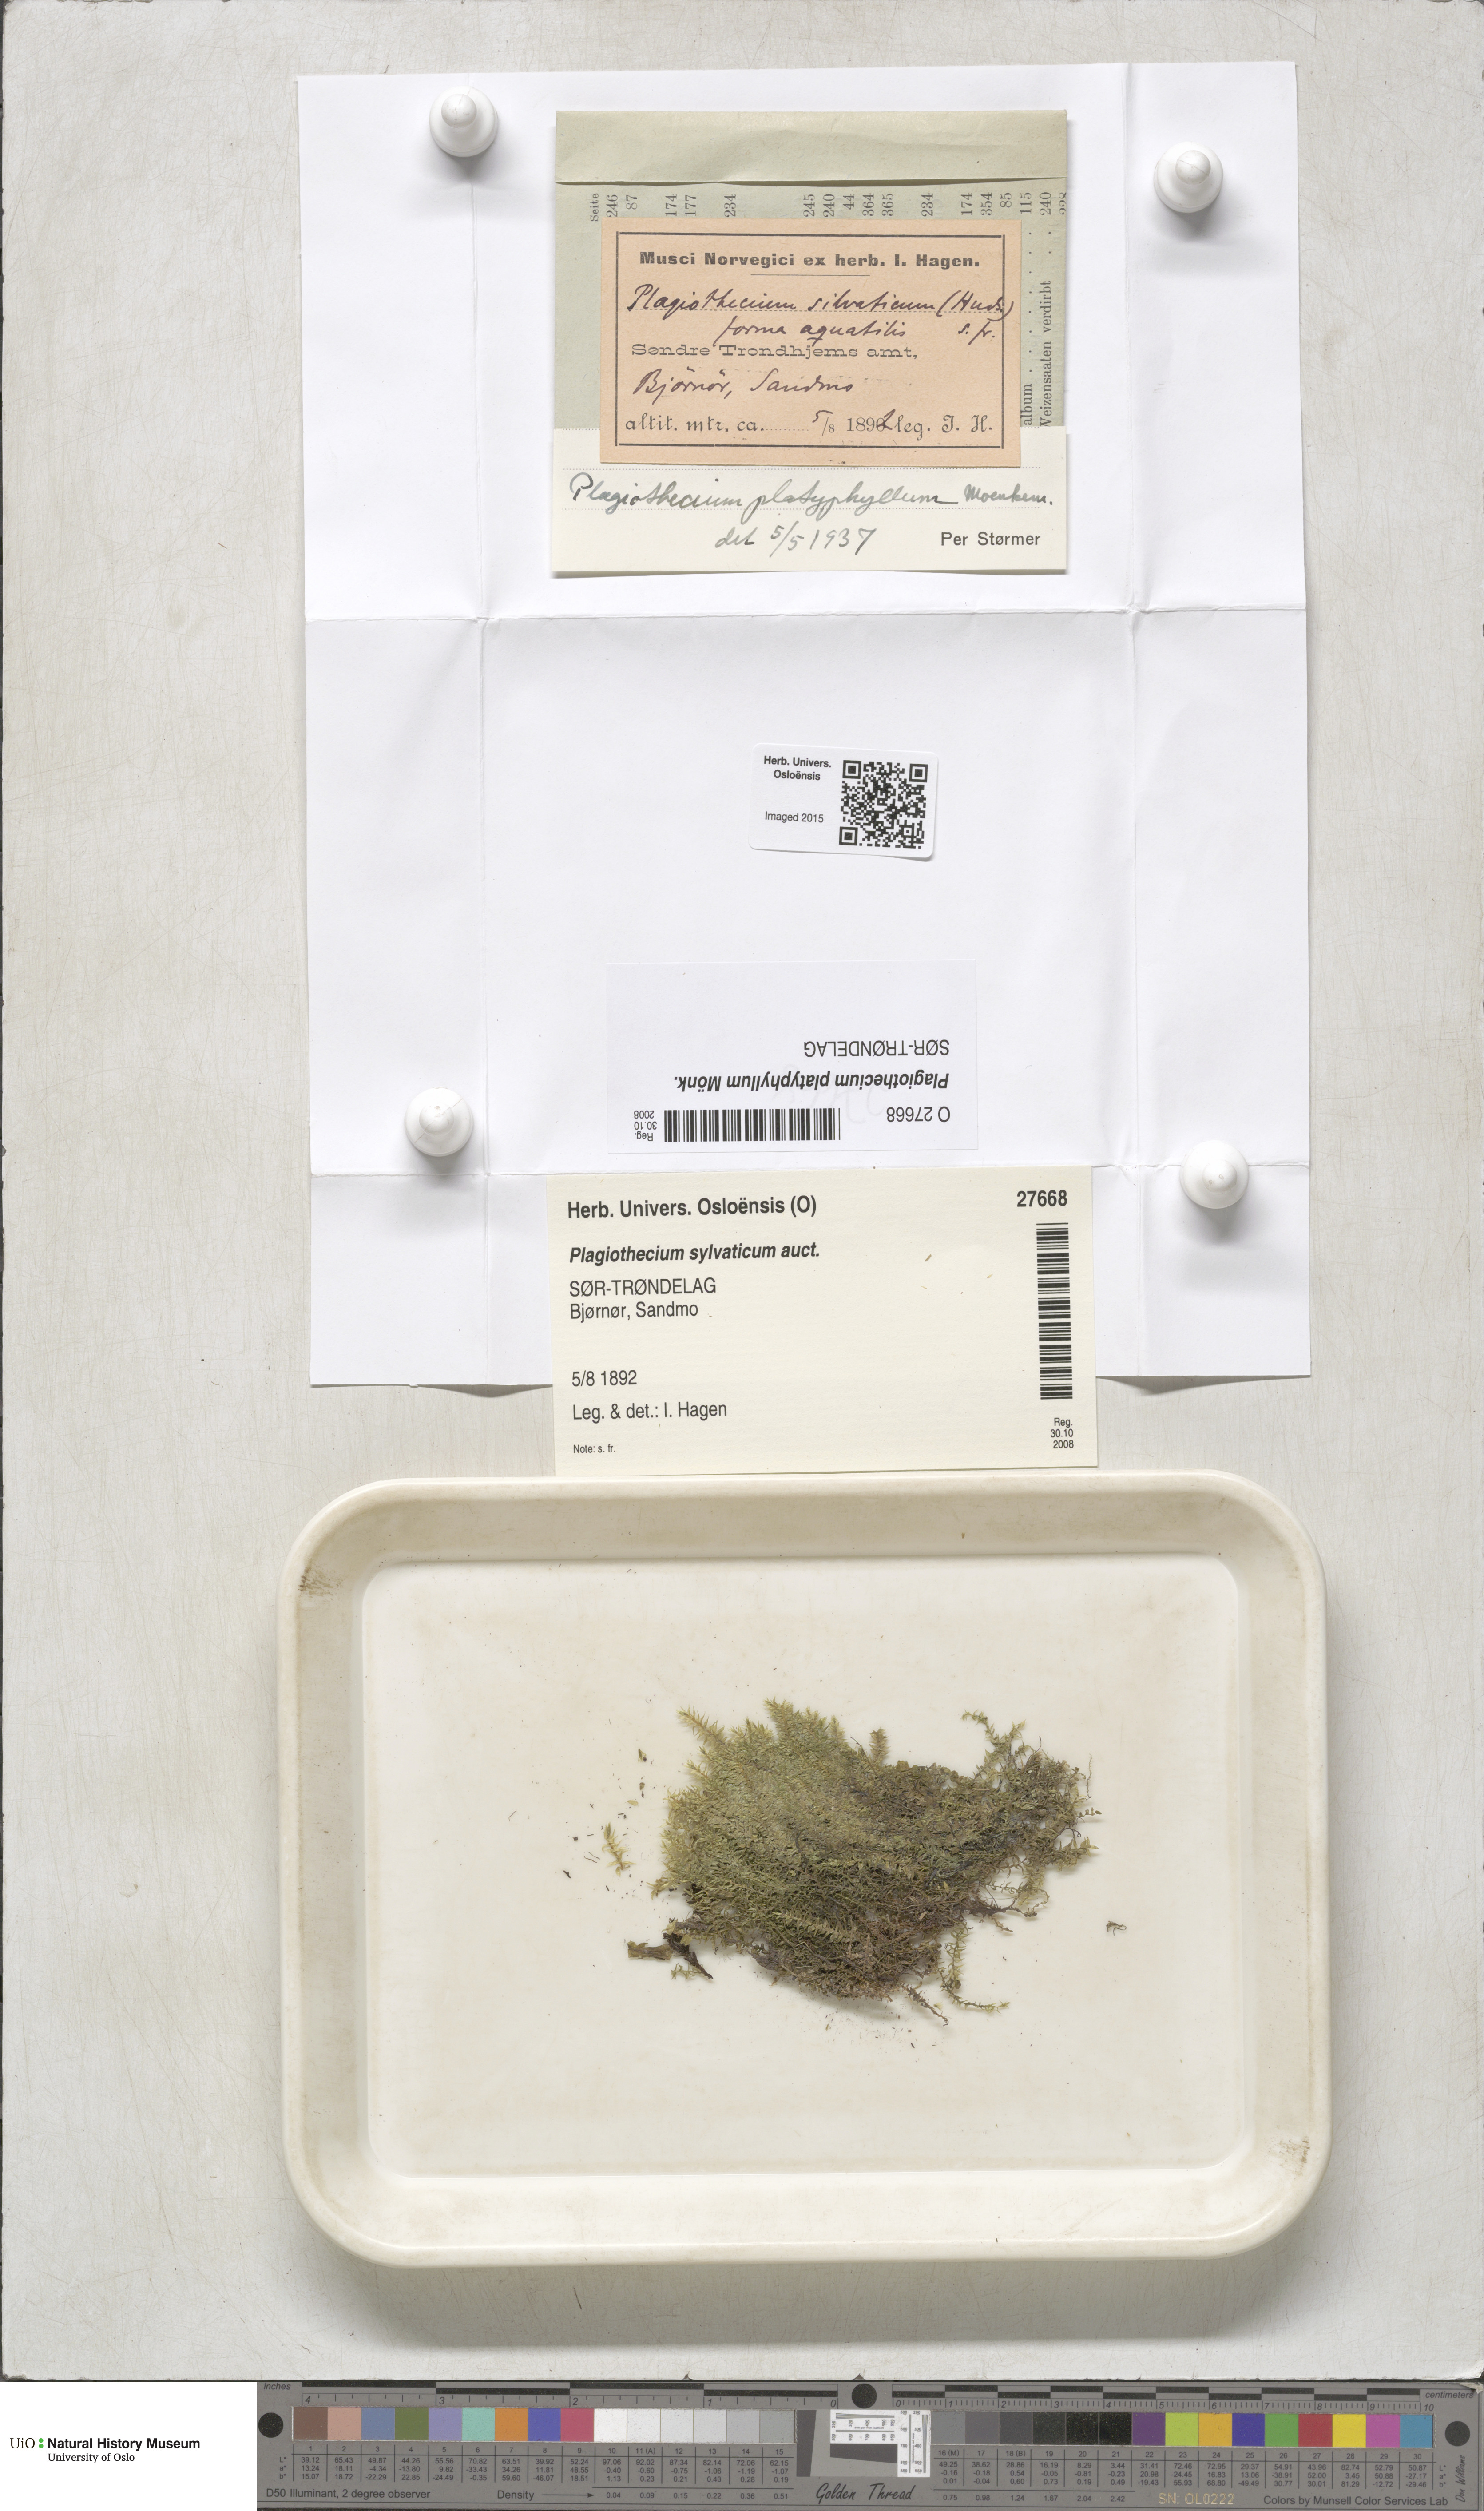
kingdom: Plantae
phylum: Bryophyta
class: Bryopsida
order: Hypnales
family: Plagiotheciaceae
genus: Plagiothecium
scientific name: Plagiothecium platyphyllum
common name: Alpine silk-moss
